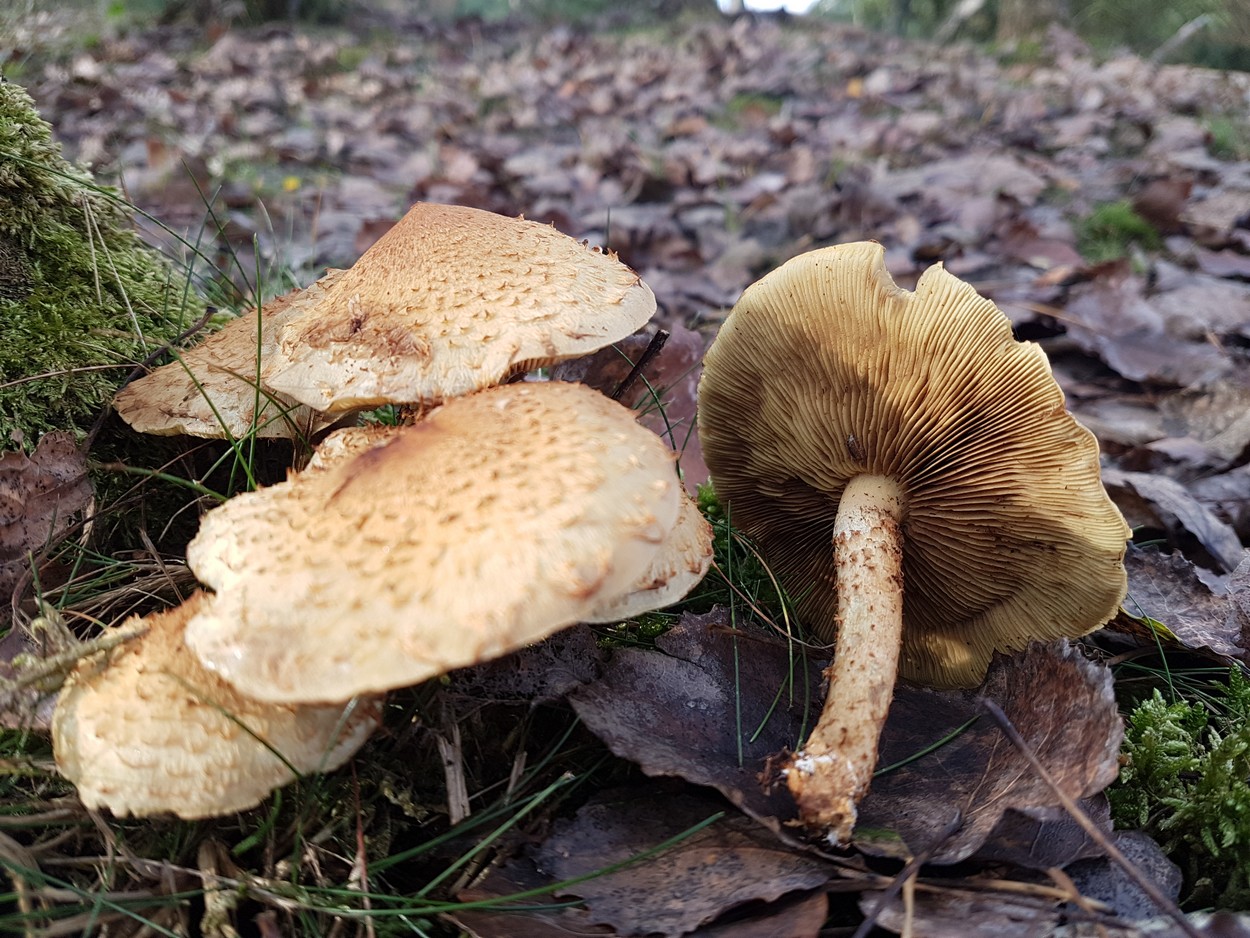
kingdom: Fungi
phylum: Basidiomycota
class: Agaricomycetes
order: Agaricales
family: Strophariaceae
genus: Pholiota
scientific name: Pholiota squarrosa
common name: krumskællet skælhat
